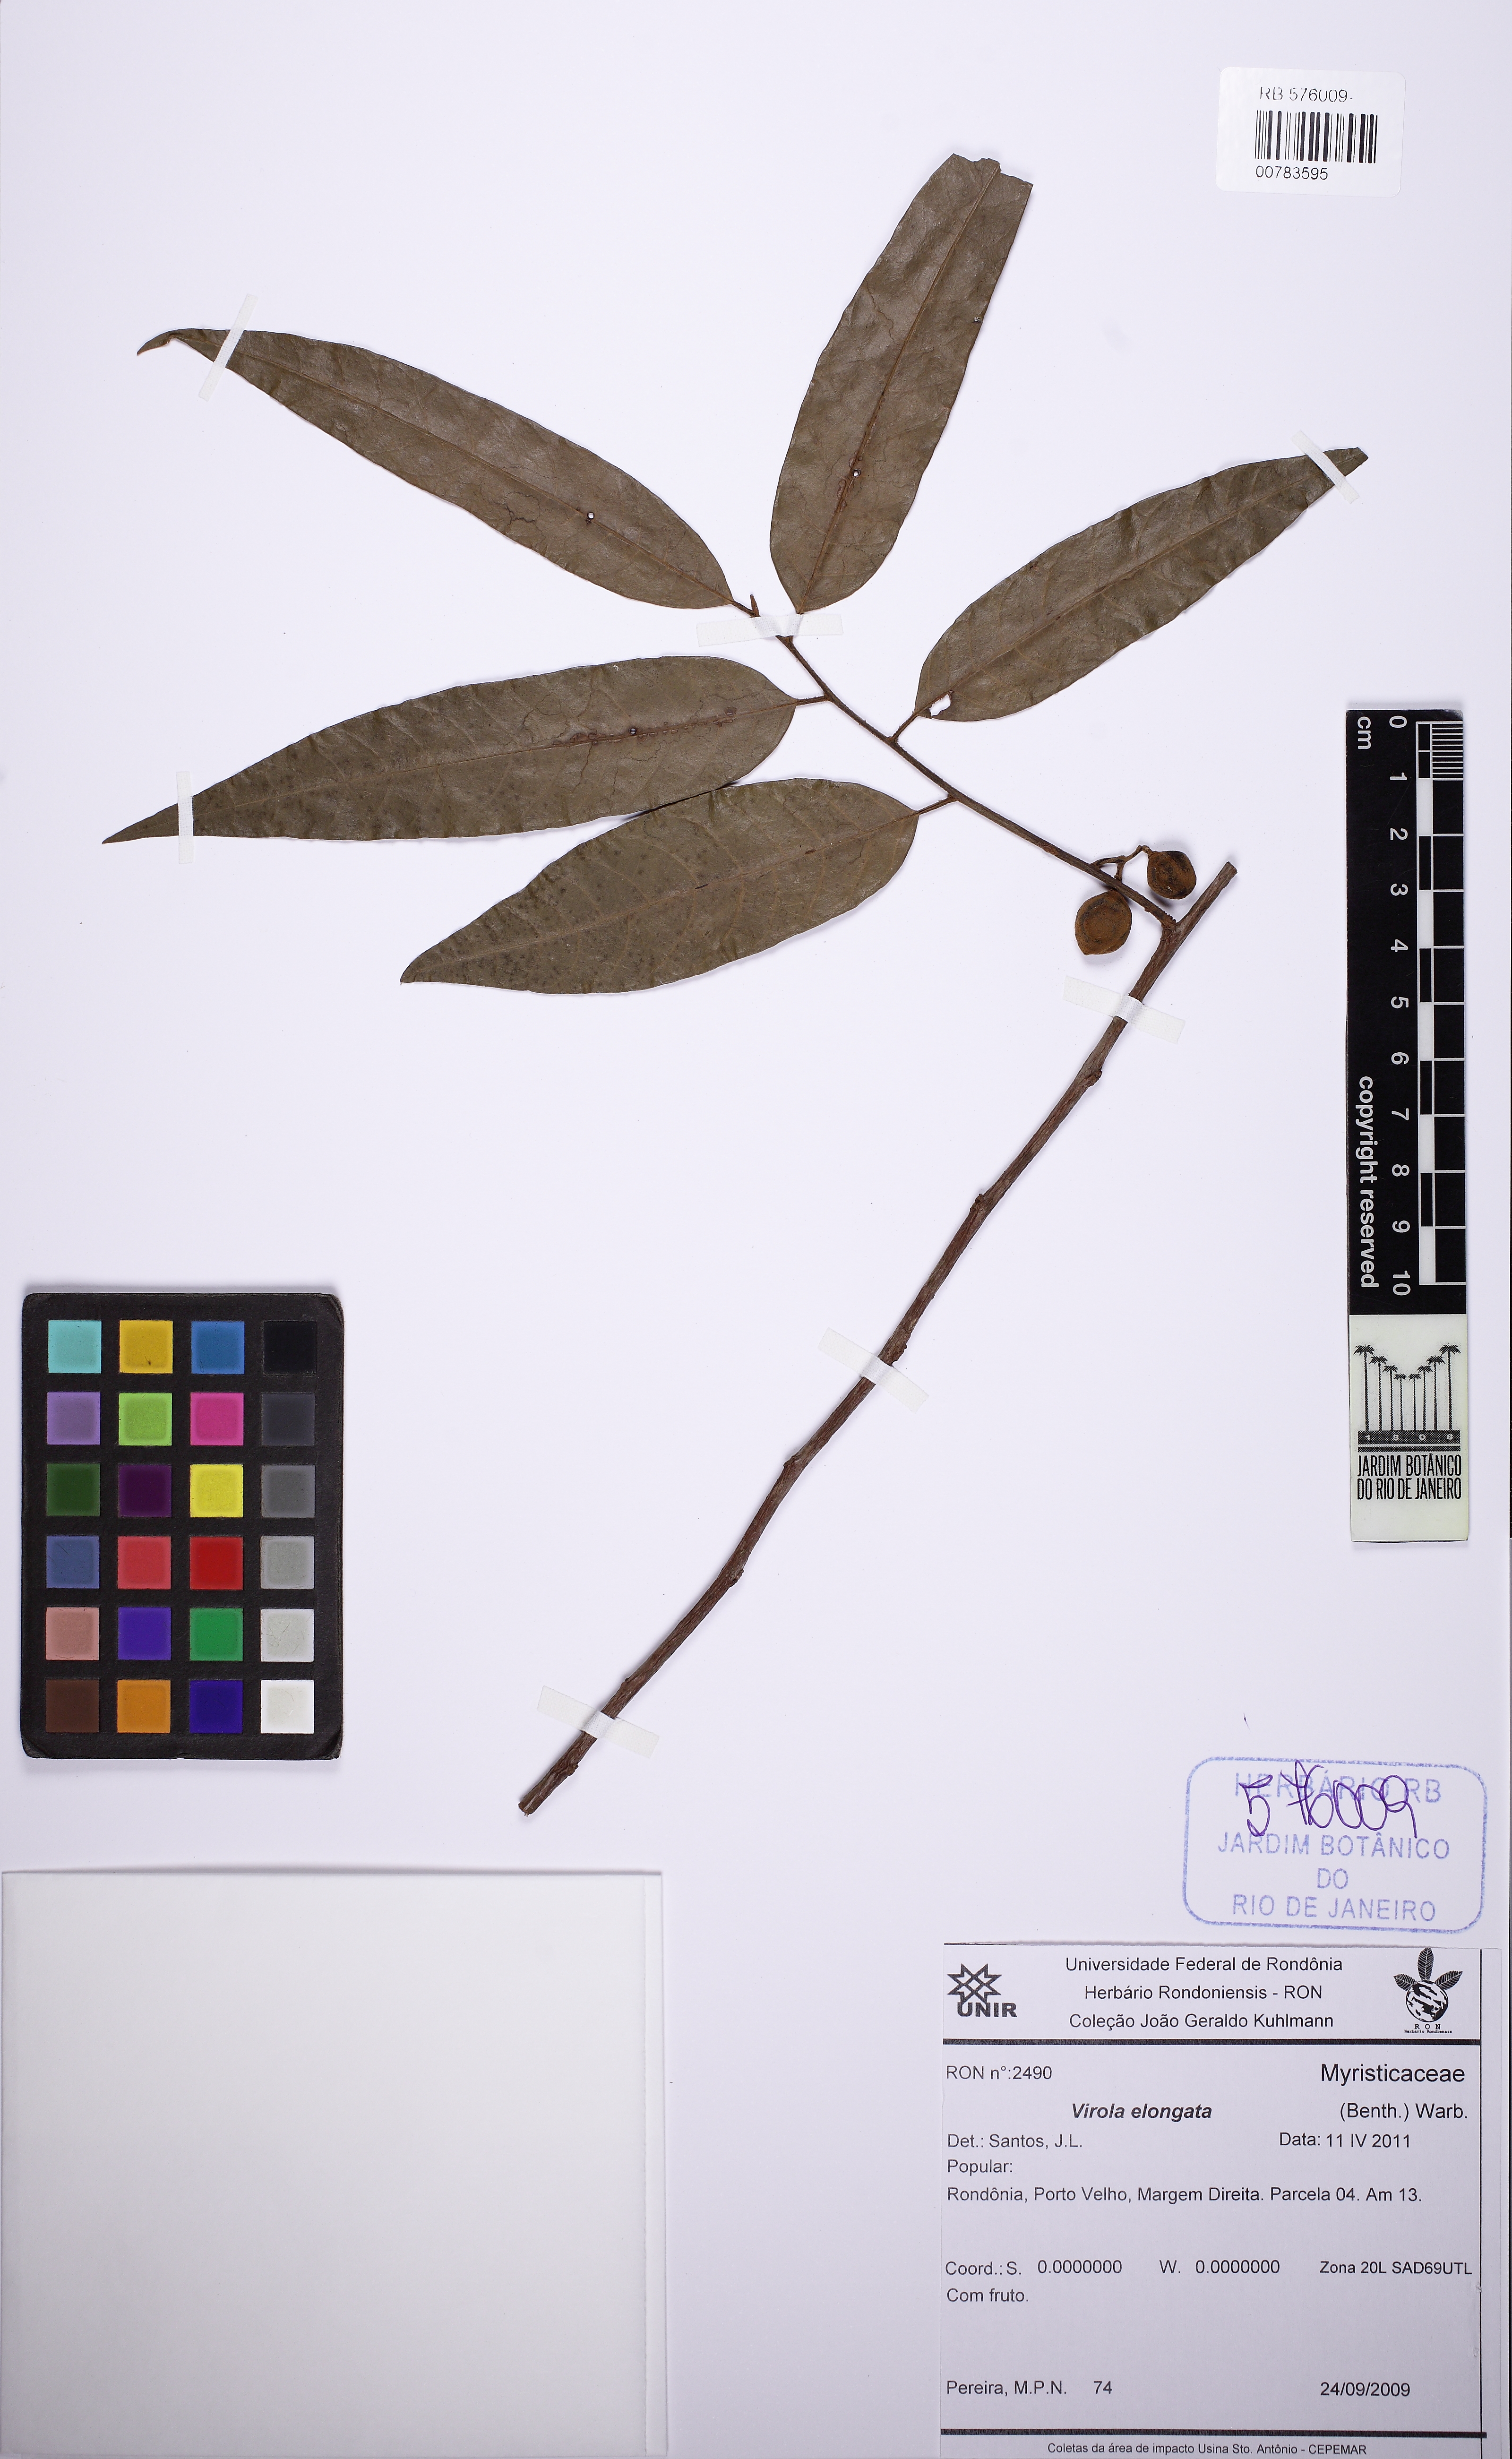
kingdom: Plantae
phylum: Tracheophyta
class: Magnoliopsida
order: Magnoliales
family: Myristicaceae
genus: Virola
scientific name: Virola elongata
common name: Sacred virola
